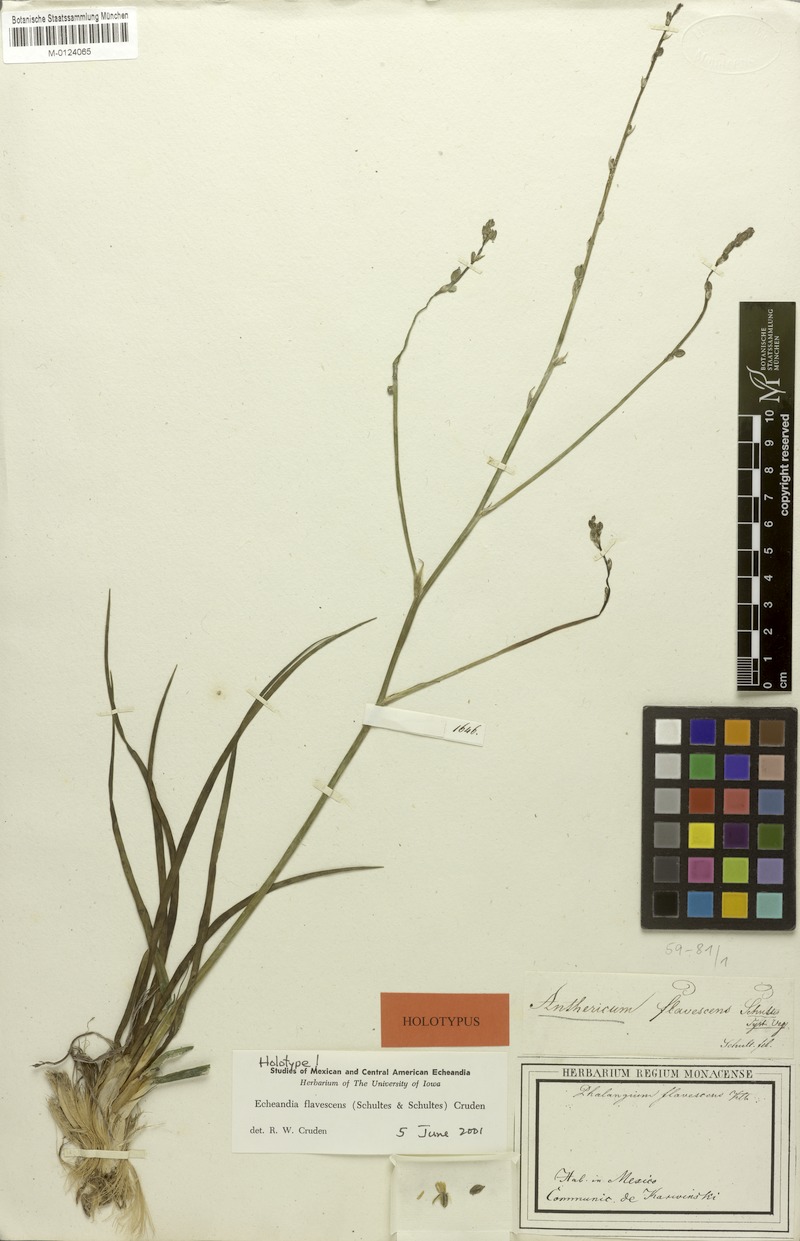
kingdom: Plantae
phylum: Tracheophyta
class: Liliopsida
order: Asparagales
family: Asparagaceae
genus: Echeandia
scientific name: Echeandia flavescens
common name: Amberlily
